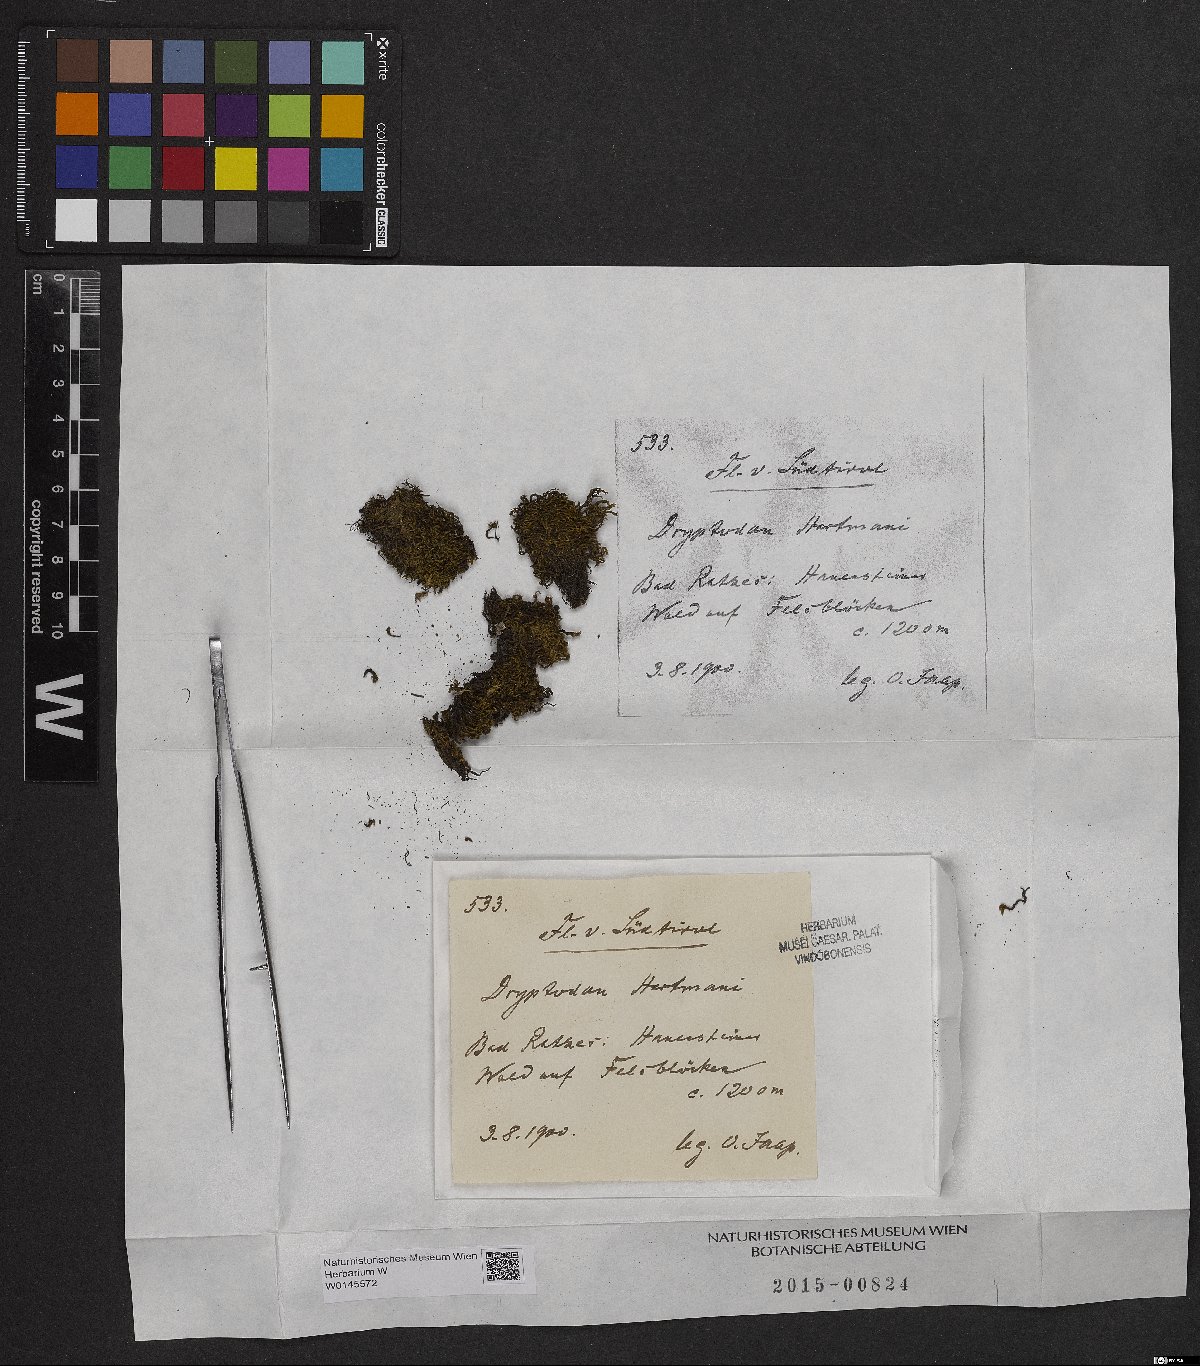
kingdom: Plantae
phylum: Bryophyta
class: Bryopsida
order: Grimmiales
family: Grimmiaceae
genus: Grimmia
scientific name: Grimmia hartmanii
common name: Hartman's grimmia
